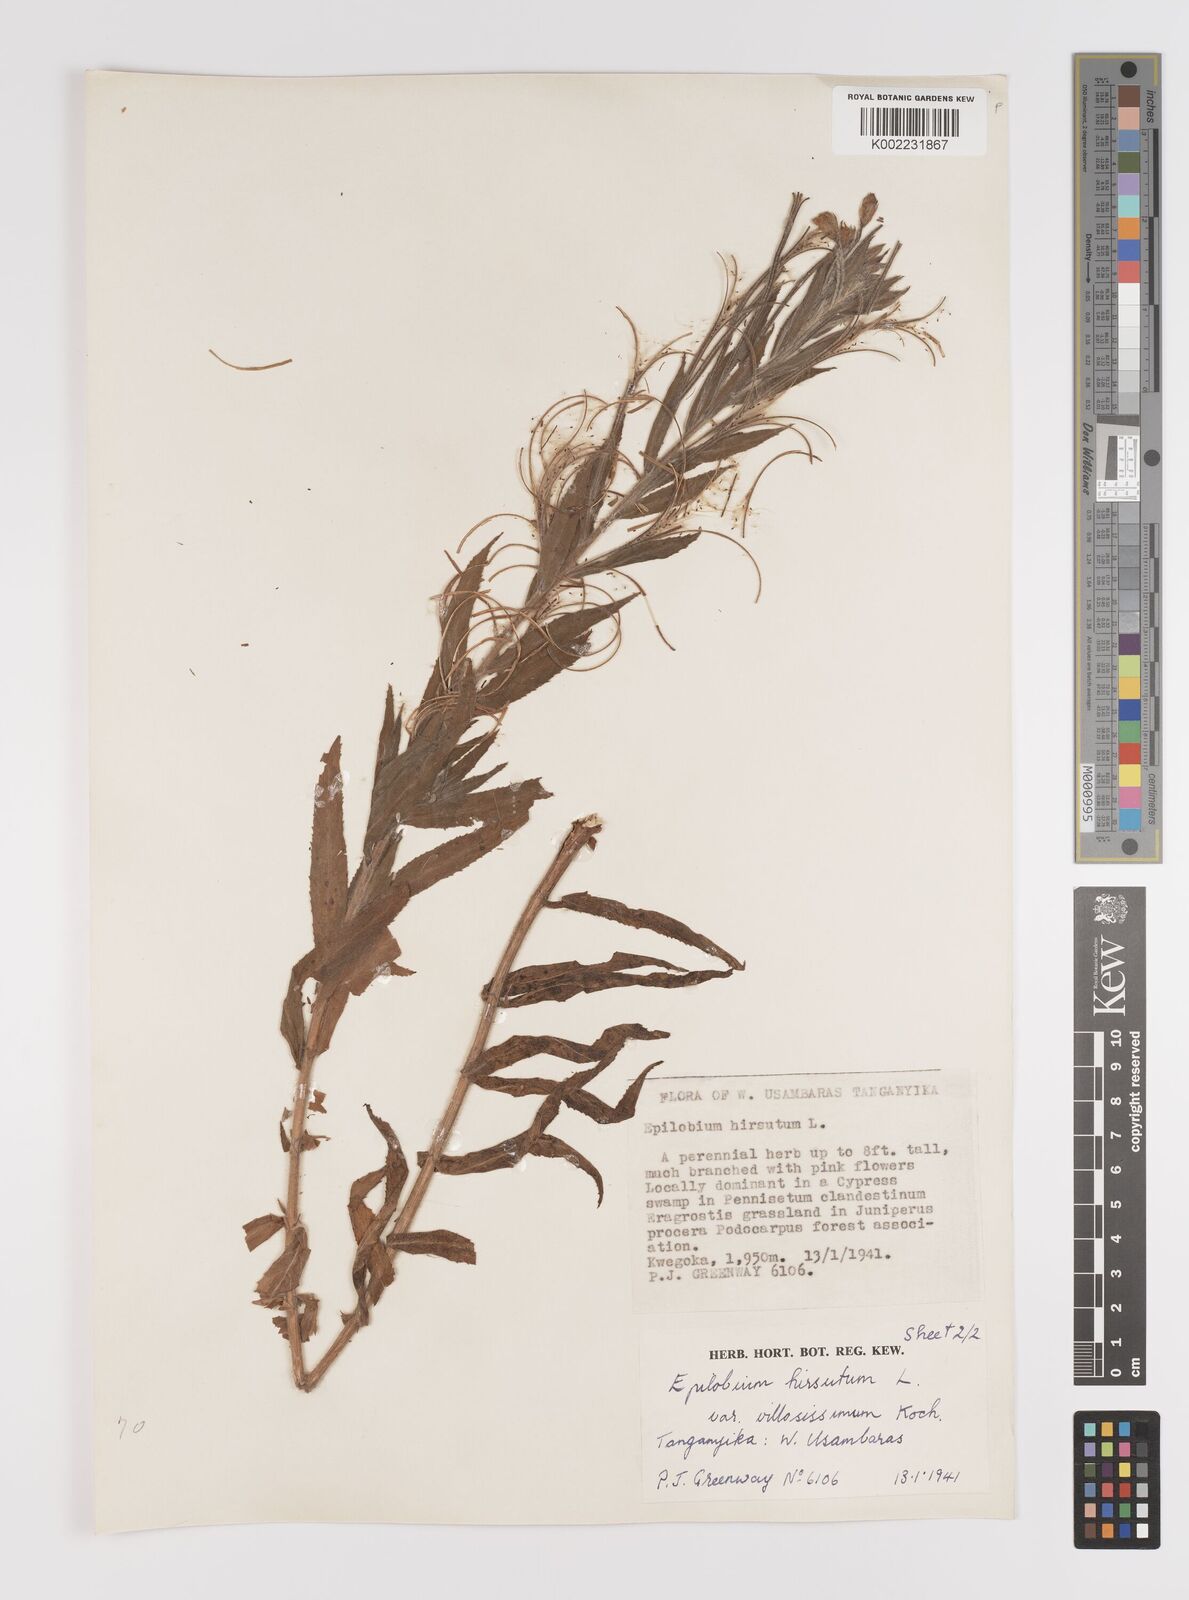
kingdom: Plantae
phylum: Tracheophyta
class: Magnoliopsida
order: Myrtales
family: Onagraceae
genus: Epilobium
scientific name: Epilobium hirsutum
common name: Great willowherb
